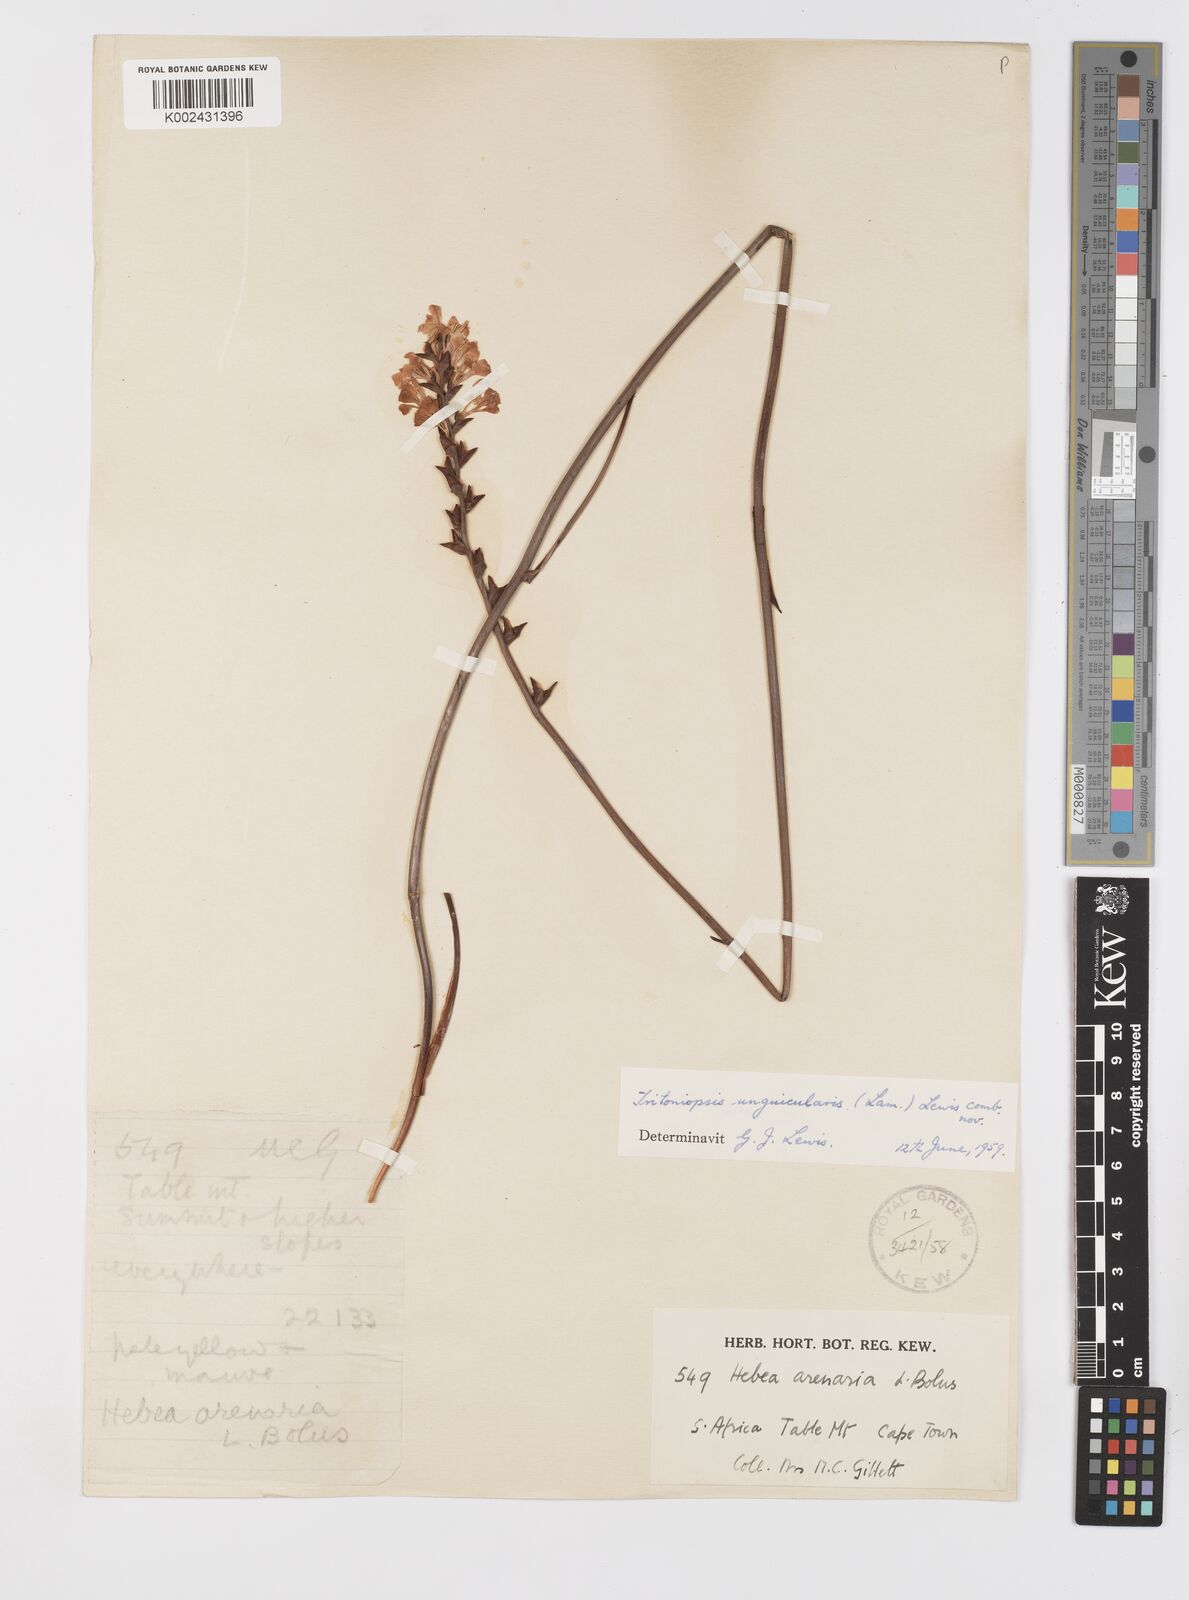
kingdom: Plantae
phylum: Tracheophyta
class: Liliopsida
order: Asparagales
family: Iridaceae
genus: Tritoniopsis
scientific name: Tritoniopsis unguicularis
